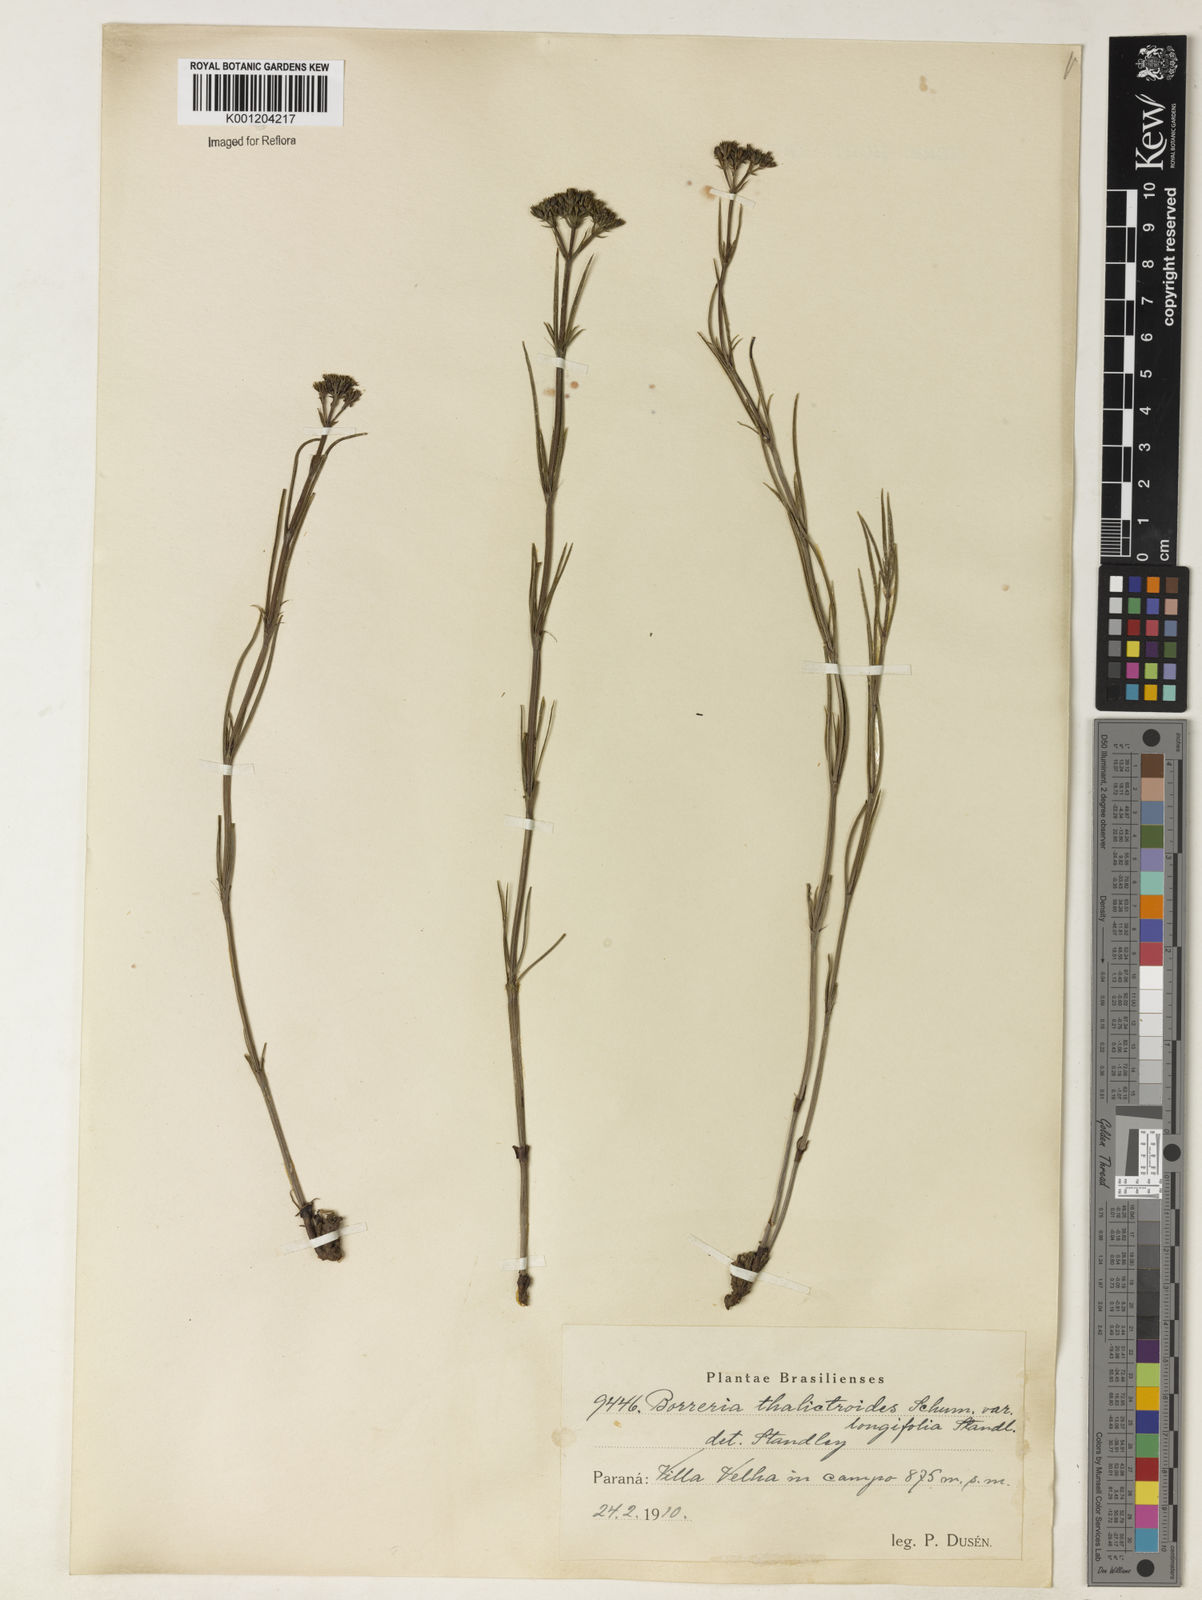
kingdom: Plantae
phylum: Tracheophyta
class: Magnoliopsida
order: Gentianales
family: Rubiaceae
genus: Galianthe
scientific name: Galianthe longifolia
